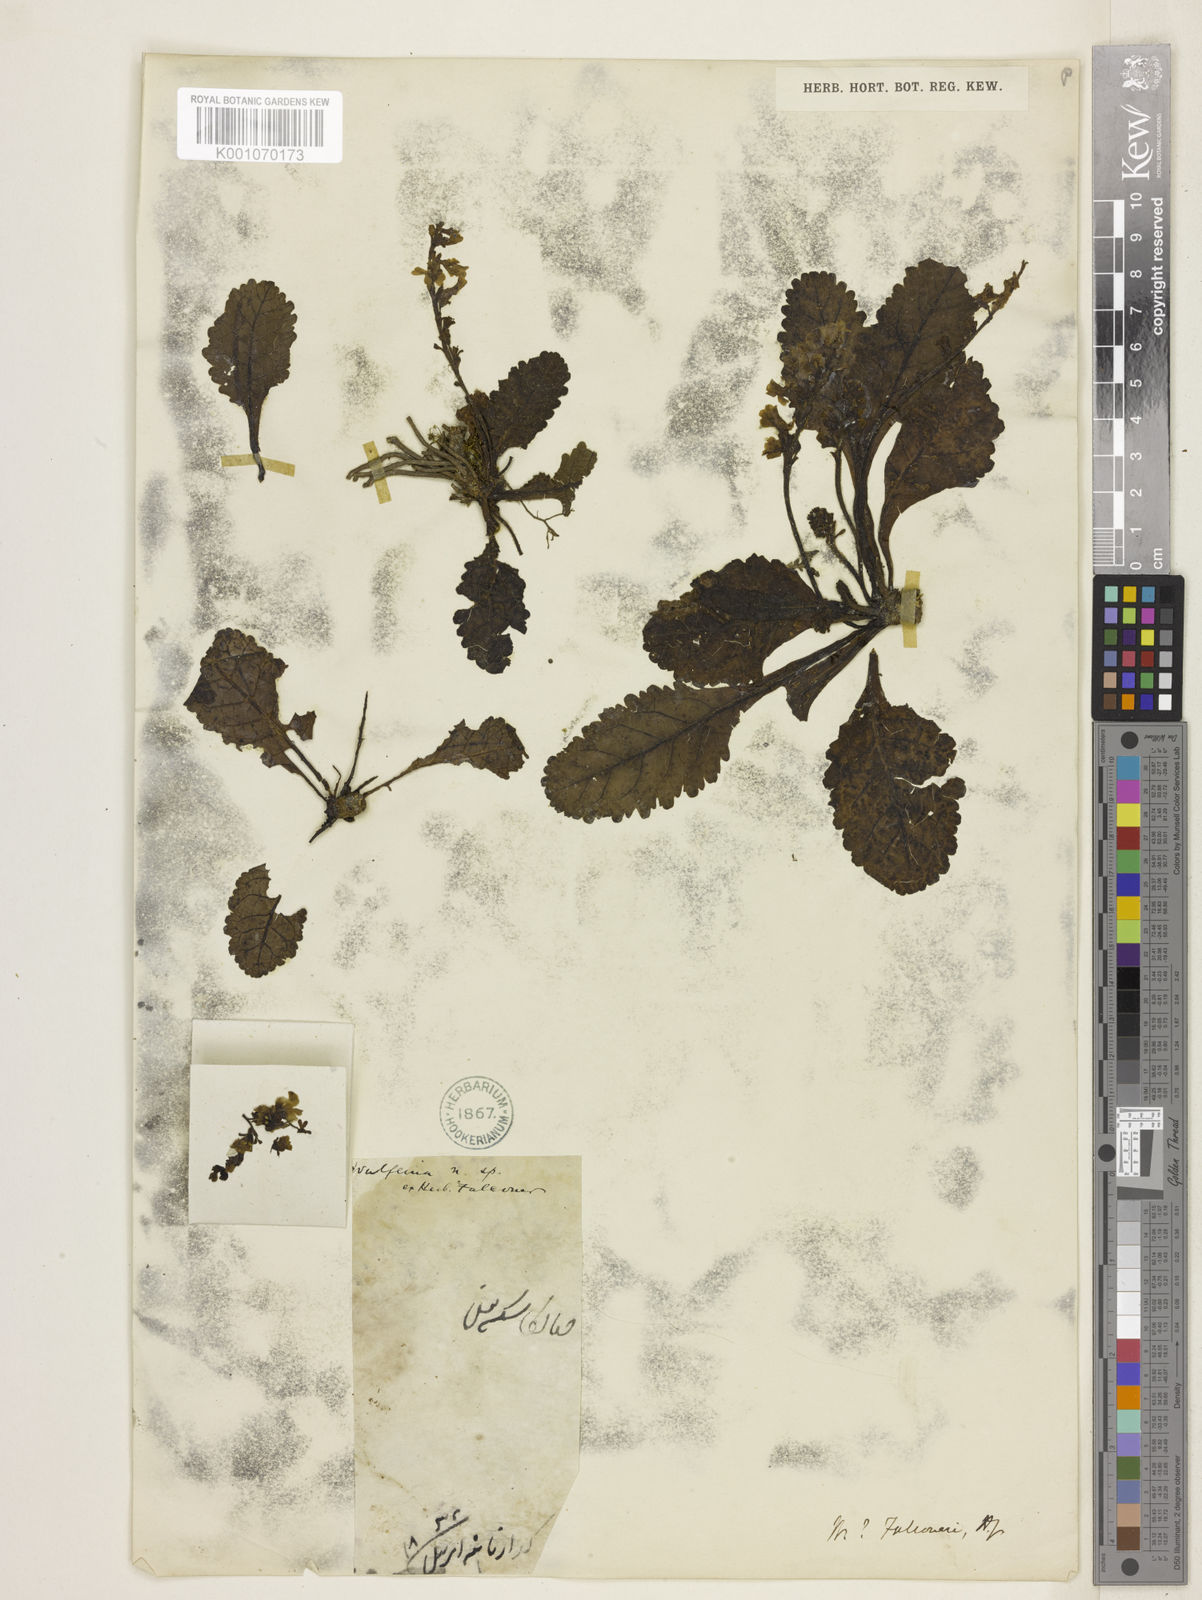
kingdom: Plantae
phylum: Tracheophyta
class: Magnoliopsida
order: Lamiales
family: Plantaginaceae
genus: Kashmiria
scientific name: Kashmiria himalaica
